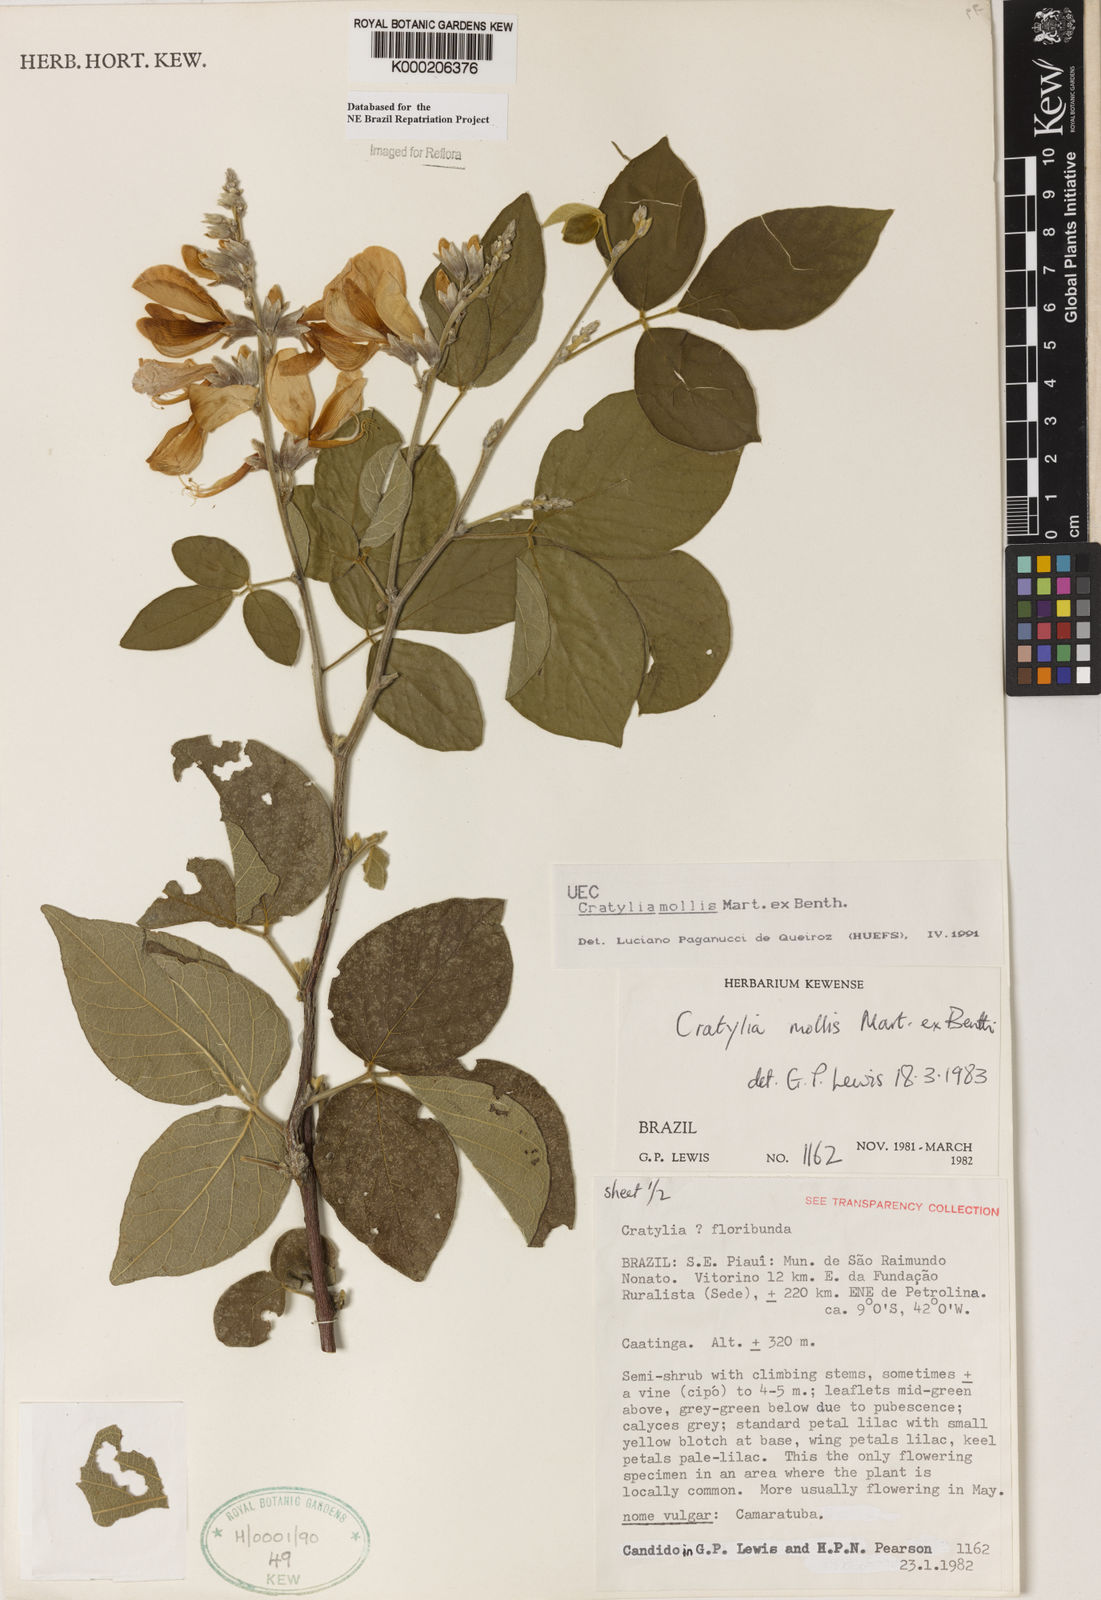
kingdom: Plantae
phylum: Tracheophyta
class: Magnoliopsida
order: Fabales
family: Fabaceae
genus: Cratylia
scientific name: Cratylia mollis
